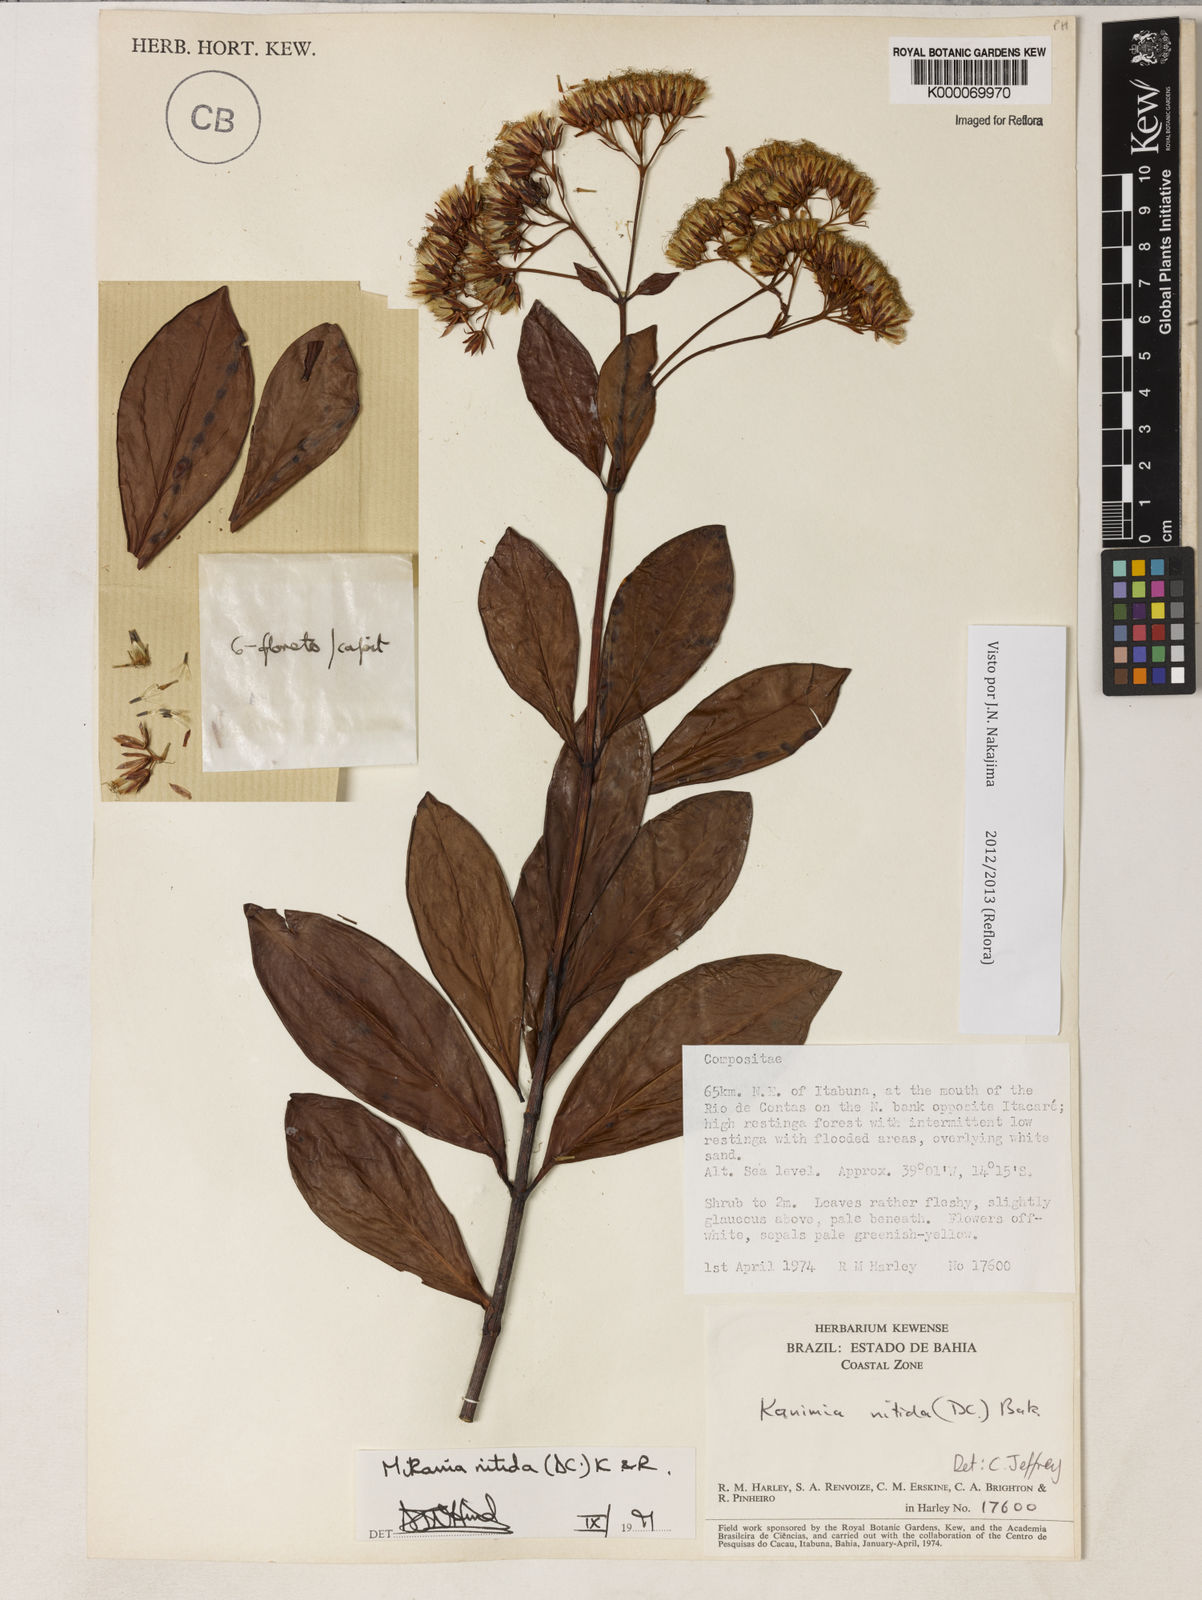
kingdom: Plantae
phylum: Tracheophyta
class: Magnoliopsida
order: Asterales
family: Asteraceae
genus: Litothamnus
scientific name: Litothamnus nitidus
